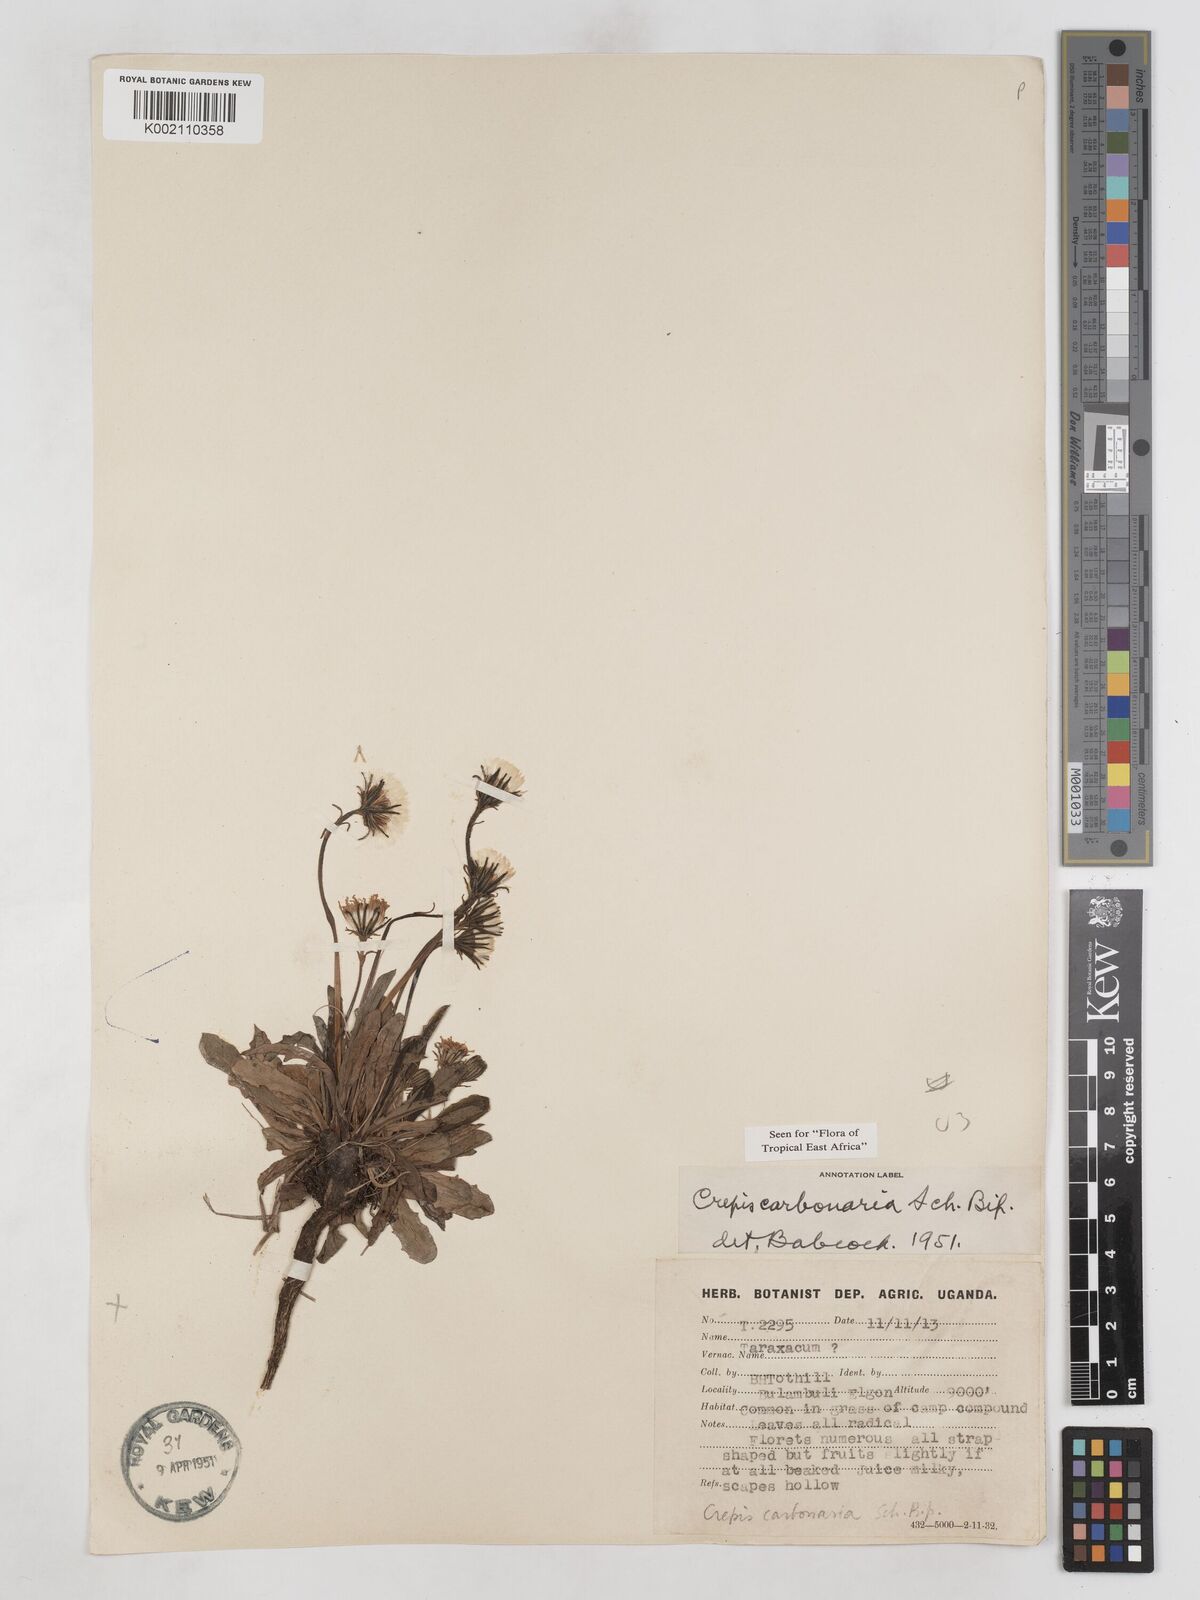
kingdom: Plantae
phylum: Tracheophyta
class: Magnoliopsida
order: Asterales
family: Asteraceae
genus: Crepis
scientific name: Crepis carbonaria
